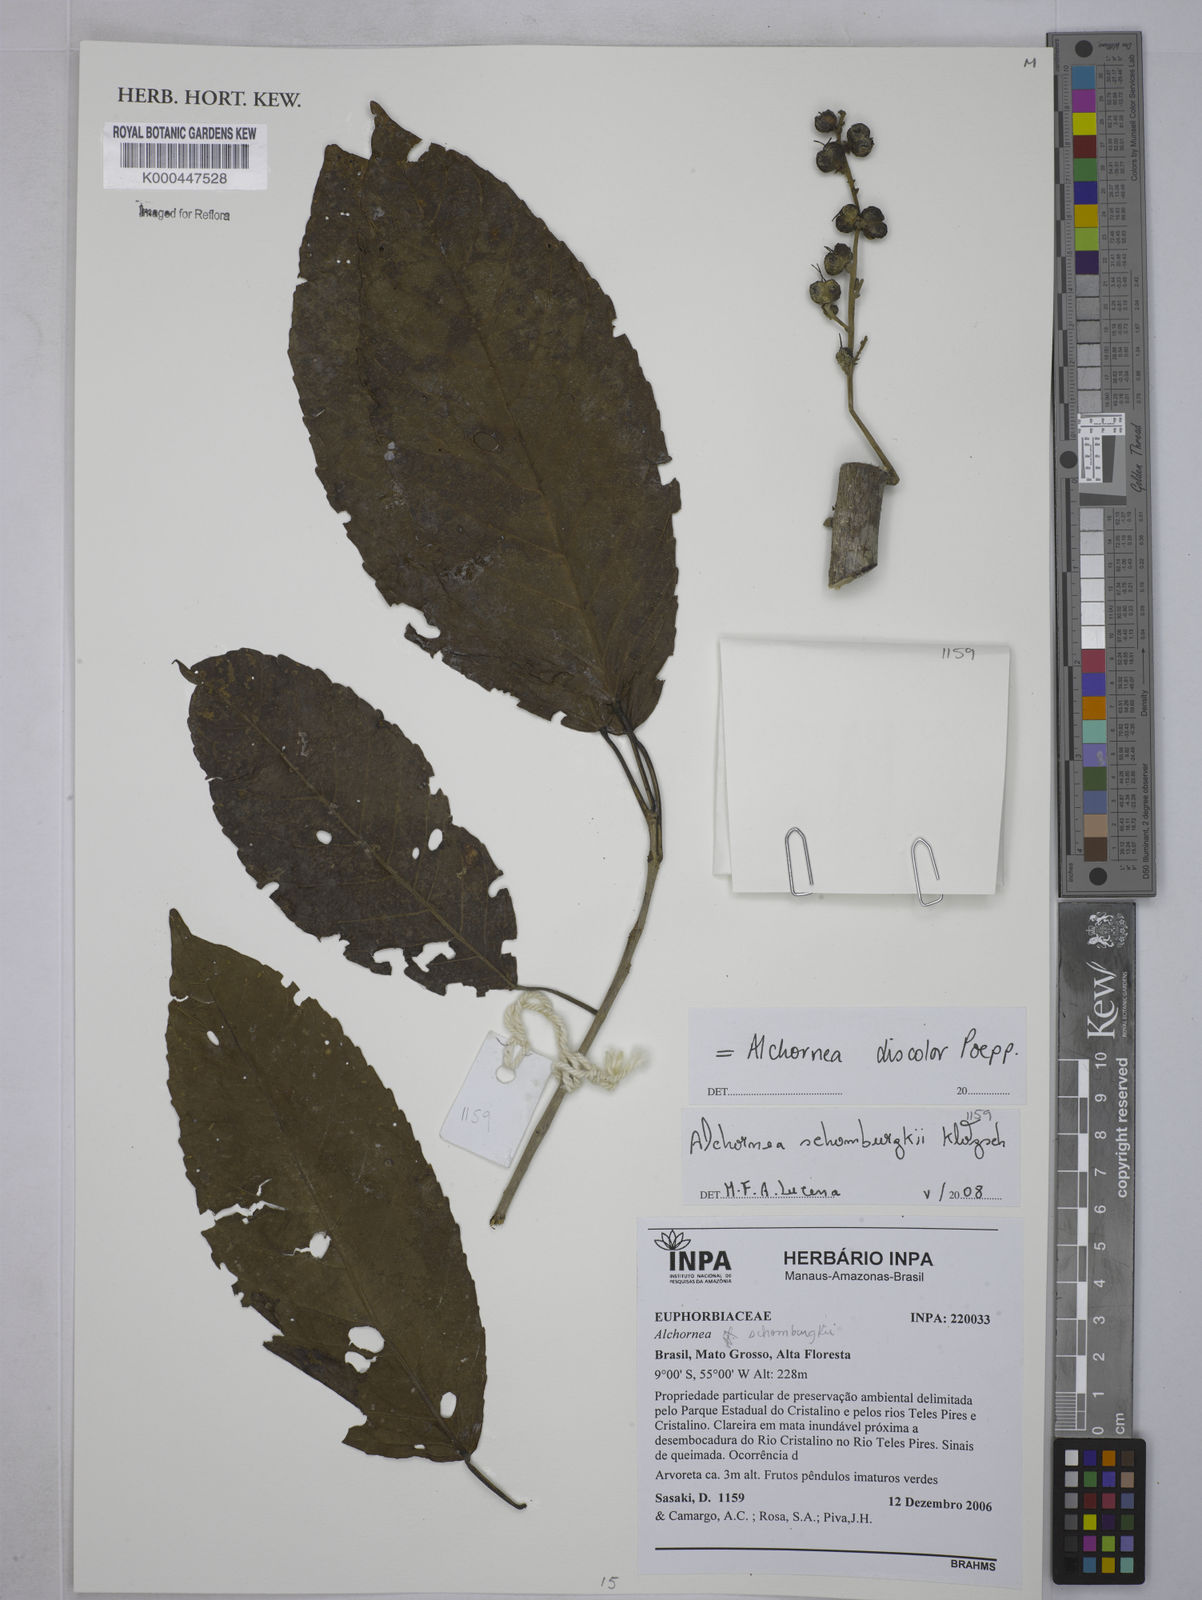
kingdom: Plantae
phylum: Tracheophyta
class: Magnoliopsida
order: Malpighiales
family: Euphorbiaceae
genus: Alchornea
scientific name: Alchornea discolor
